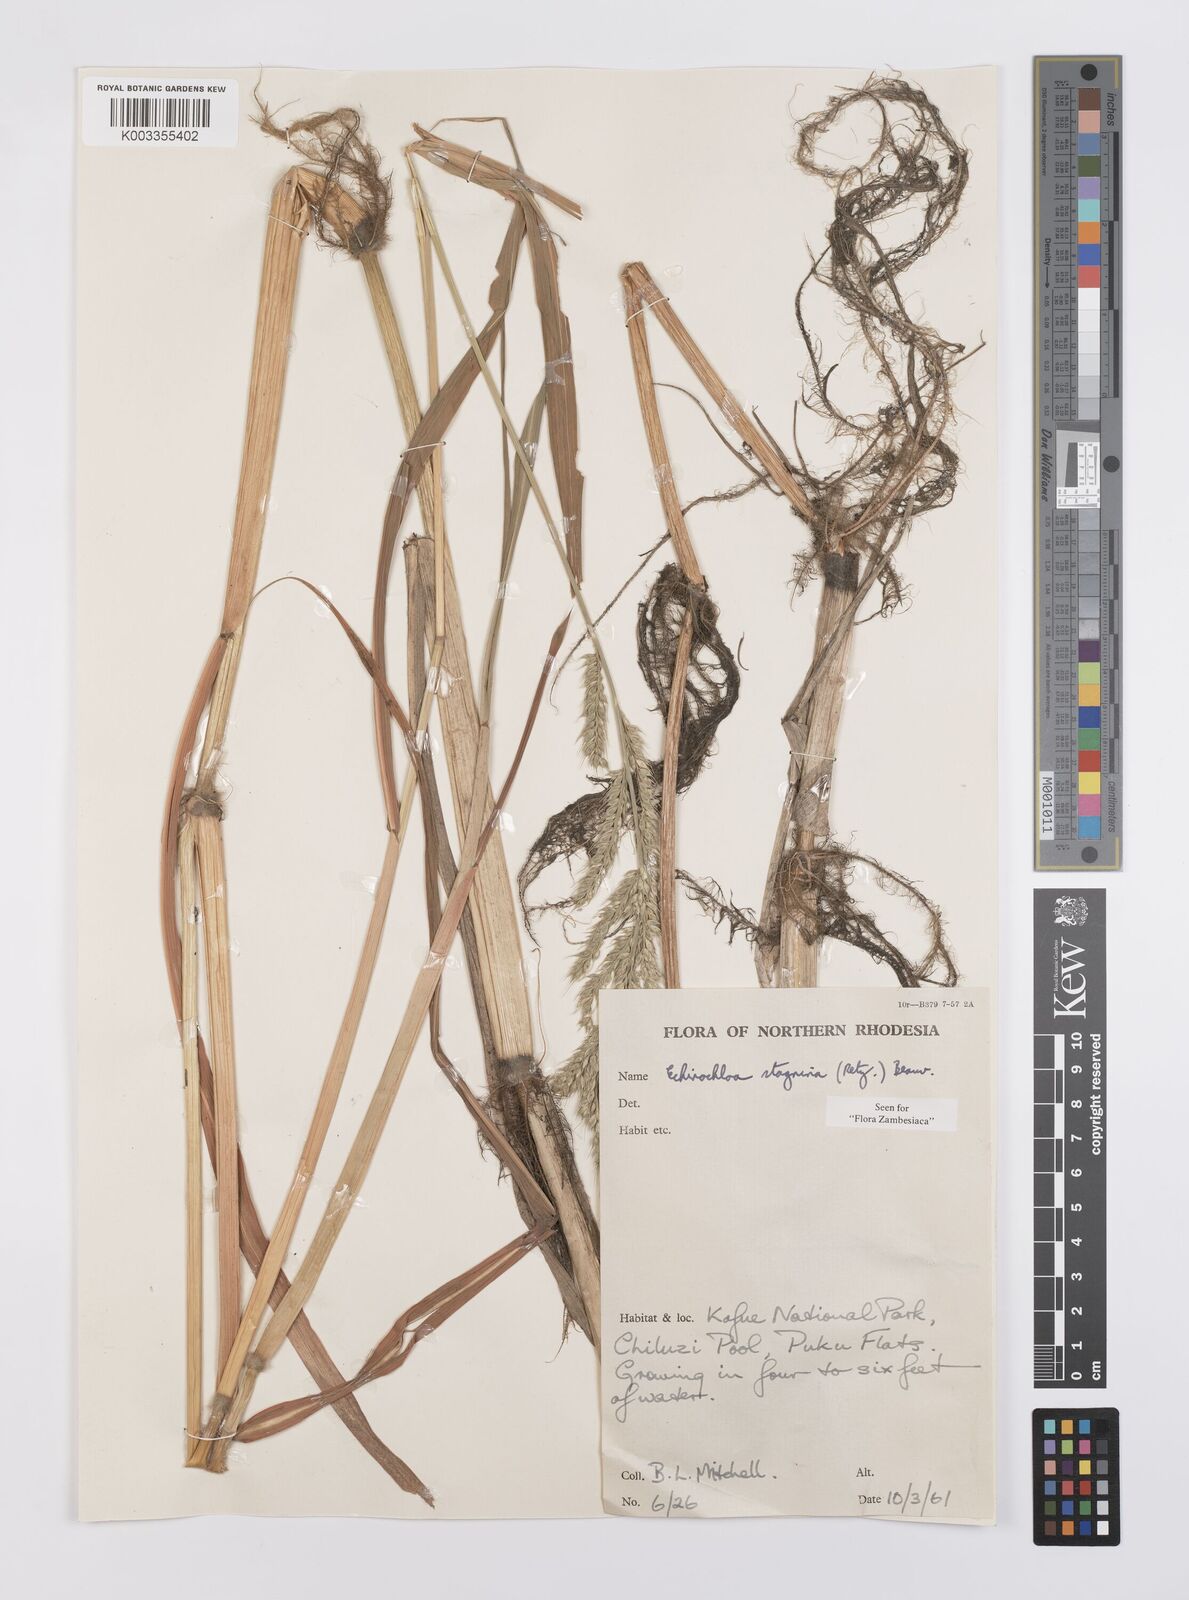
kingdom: Plantae
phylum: Tracheophyta
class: Liliopsida
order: Poales
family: Poaceae
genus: Echinochloa
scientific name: Echinochloa stagnina
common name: Burgu grass
